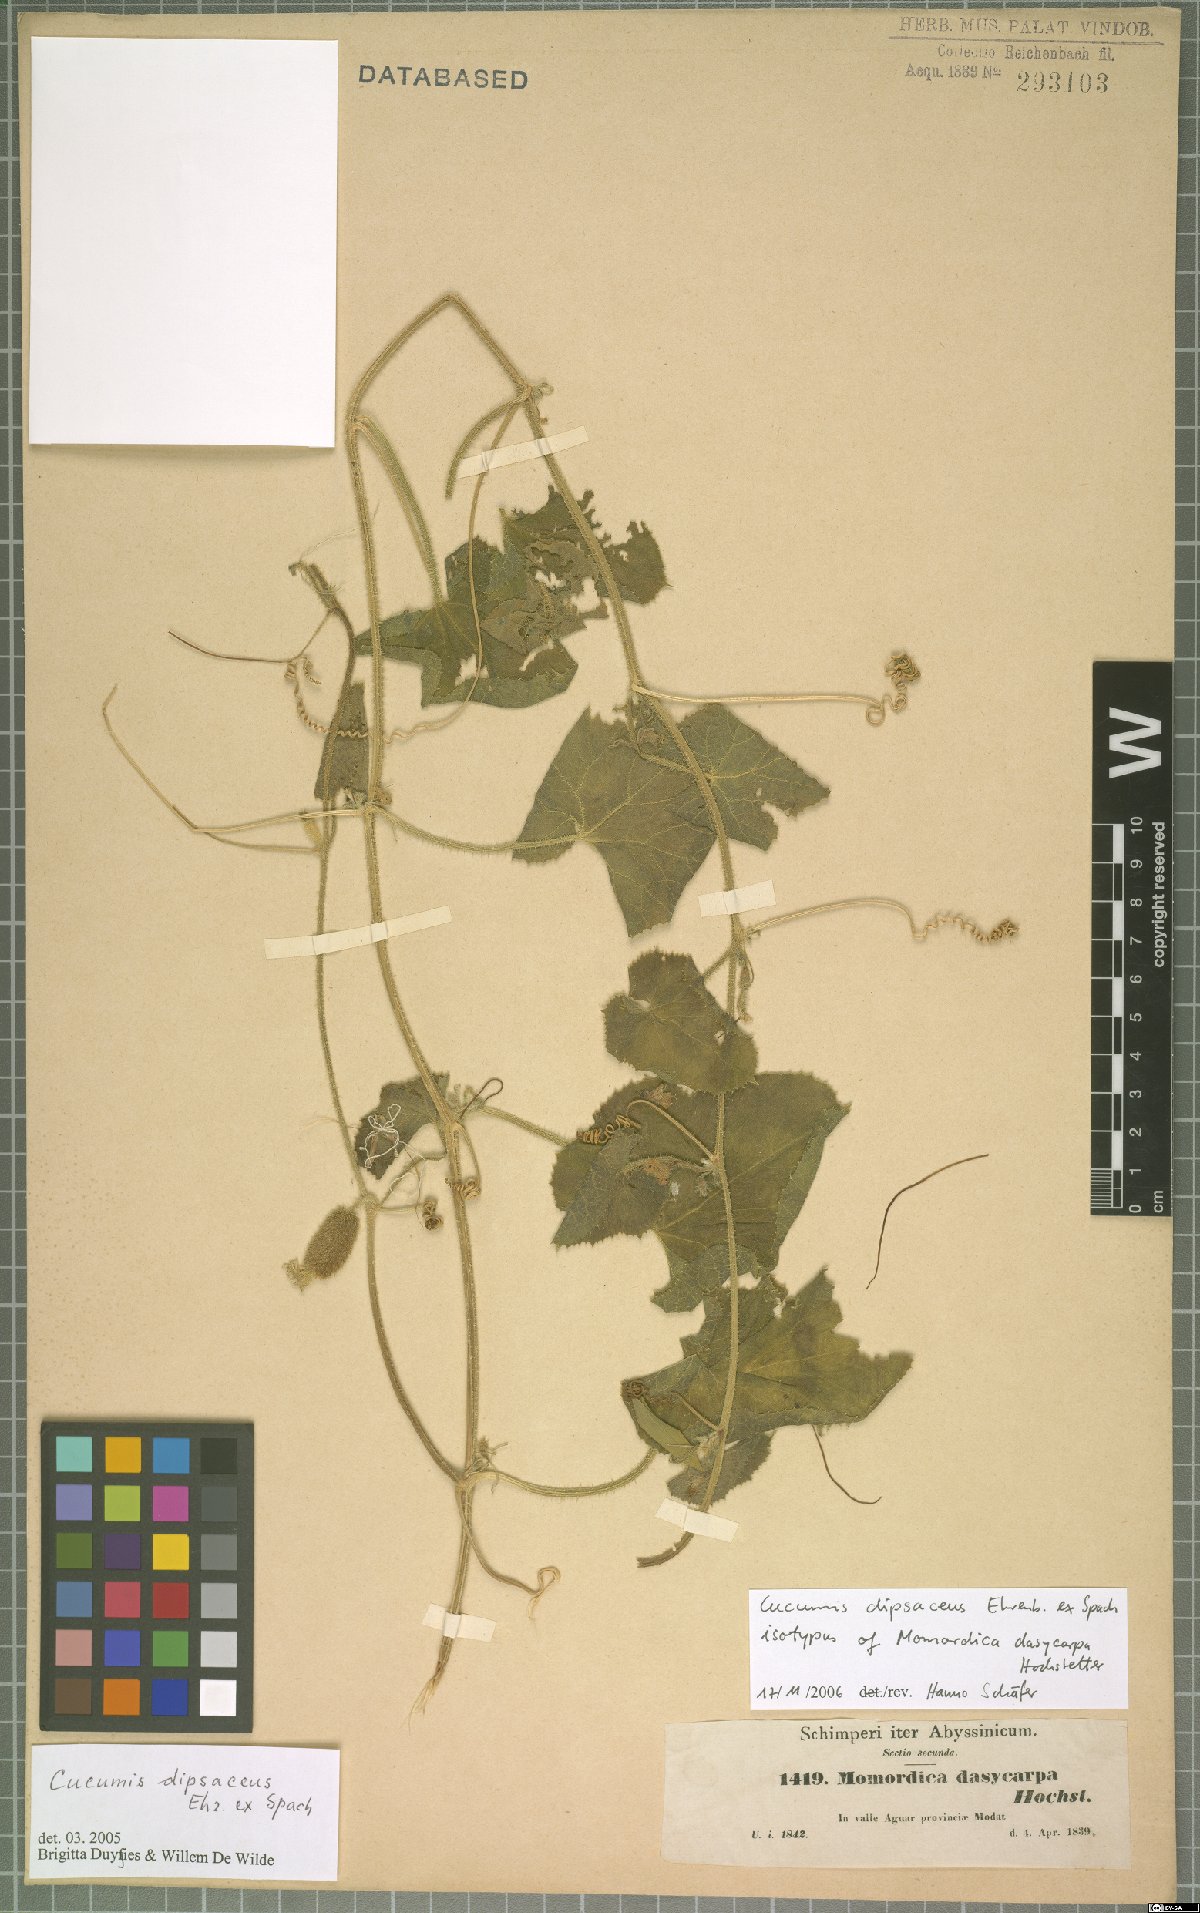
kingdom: Plantae
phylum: Tracheophyta
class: Magnoliopsida
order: Cucurbitales
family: Cucurbitaceae
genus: Cucumis
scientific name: Cucumis dipsaceus
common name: Hedgehog gourd
